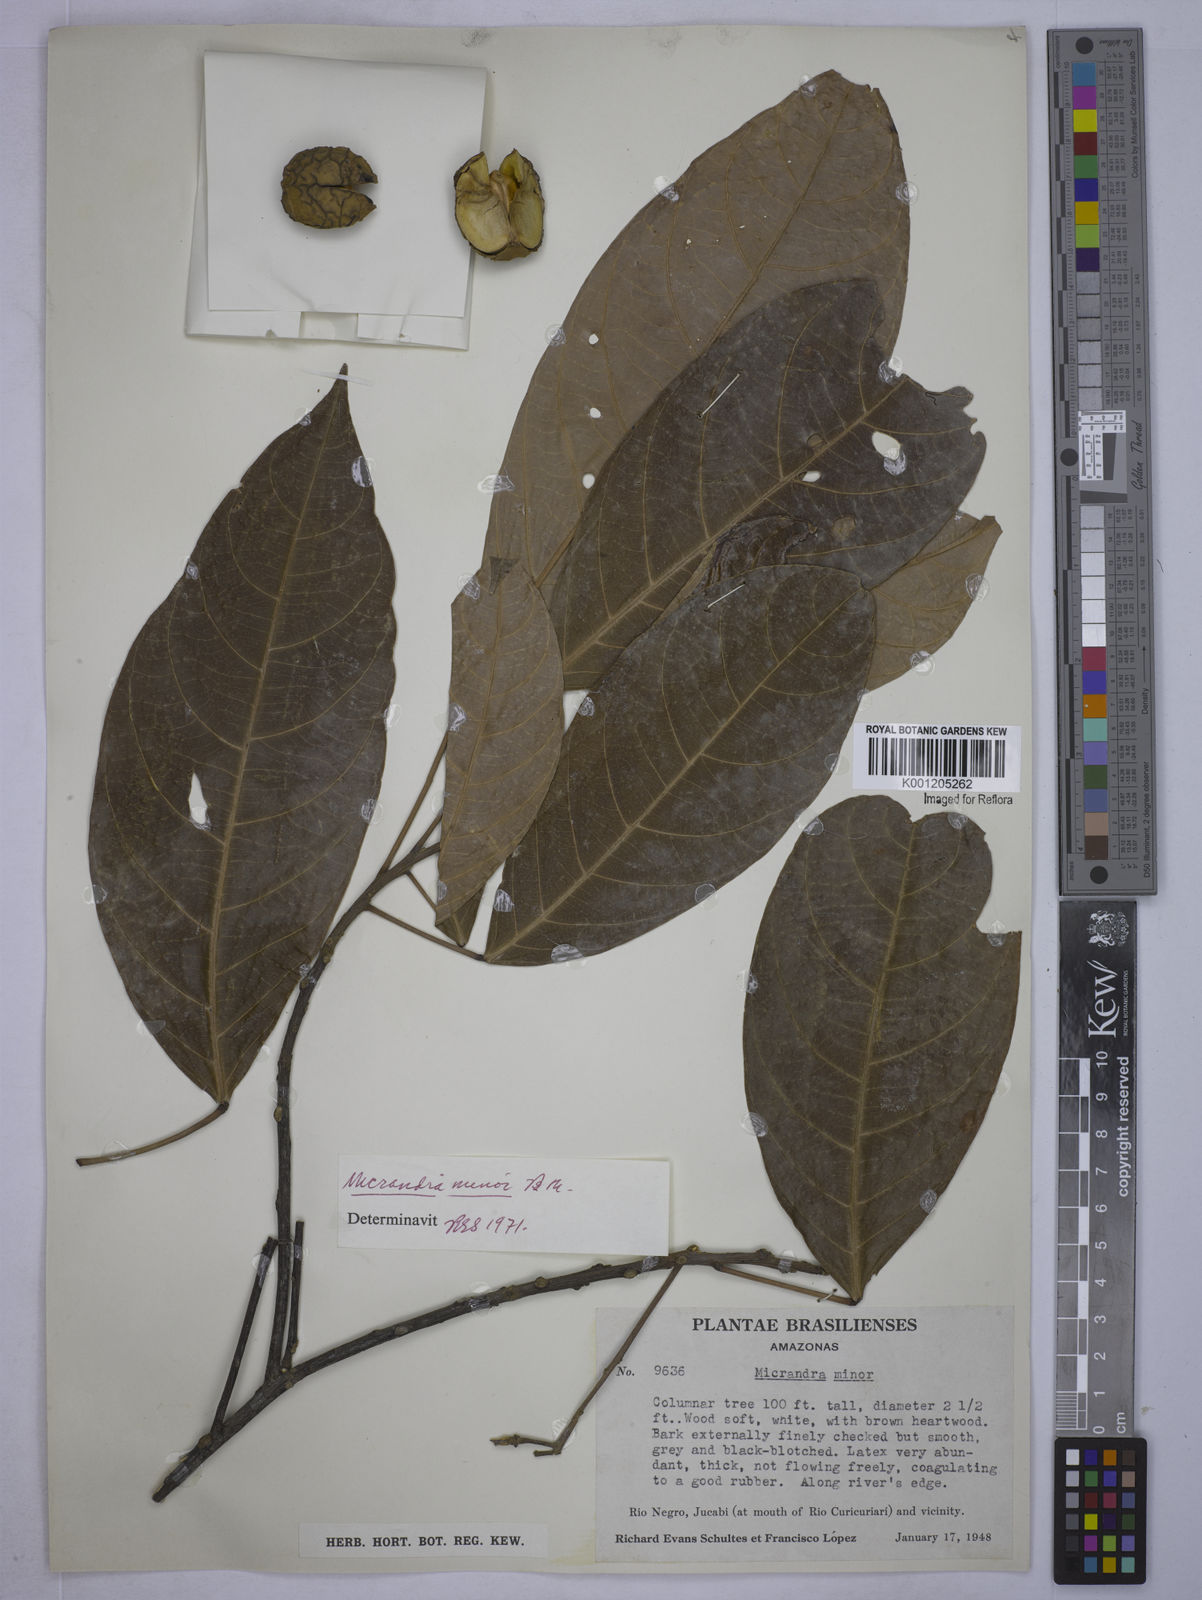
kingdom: Plantae
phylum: Tracheophyta
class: Magnoliopsida
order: Malpighiales
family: Euphorbiaceae
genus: Micrandra
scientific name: Micrandra minor
